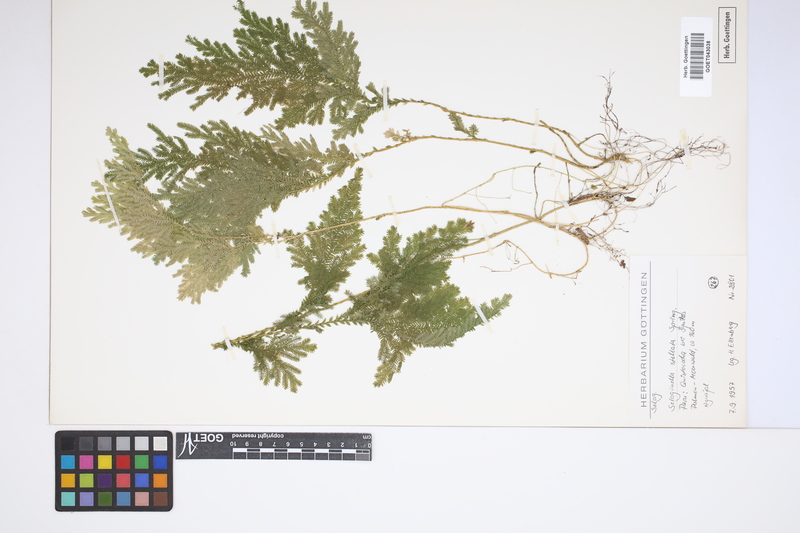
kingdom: Plantae
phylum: Tracheophyta
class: Lycopodiopsida
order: Selaginellales
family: Selaginellaceae
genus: Selaginella
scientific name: Selaginella stellata
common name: Starry spikemoss
